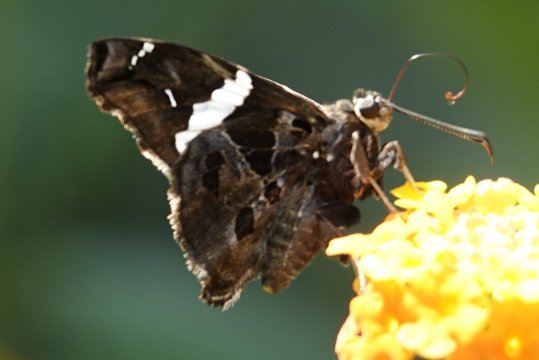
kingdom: Animalia
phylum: Arthropoda
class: Insecta
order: Lepidoptera
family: Hesperiidae
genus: Spathilepia
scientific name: Spathilepia clonius
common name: Falcate Skipper
